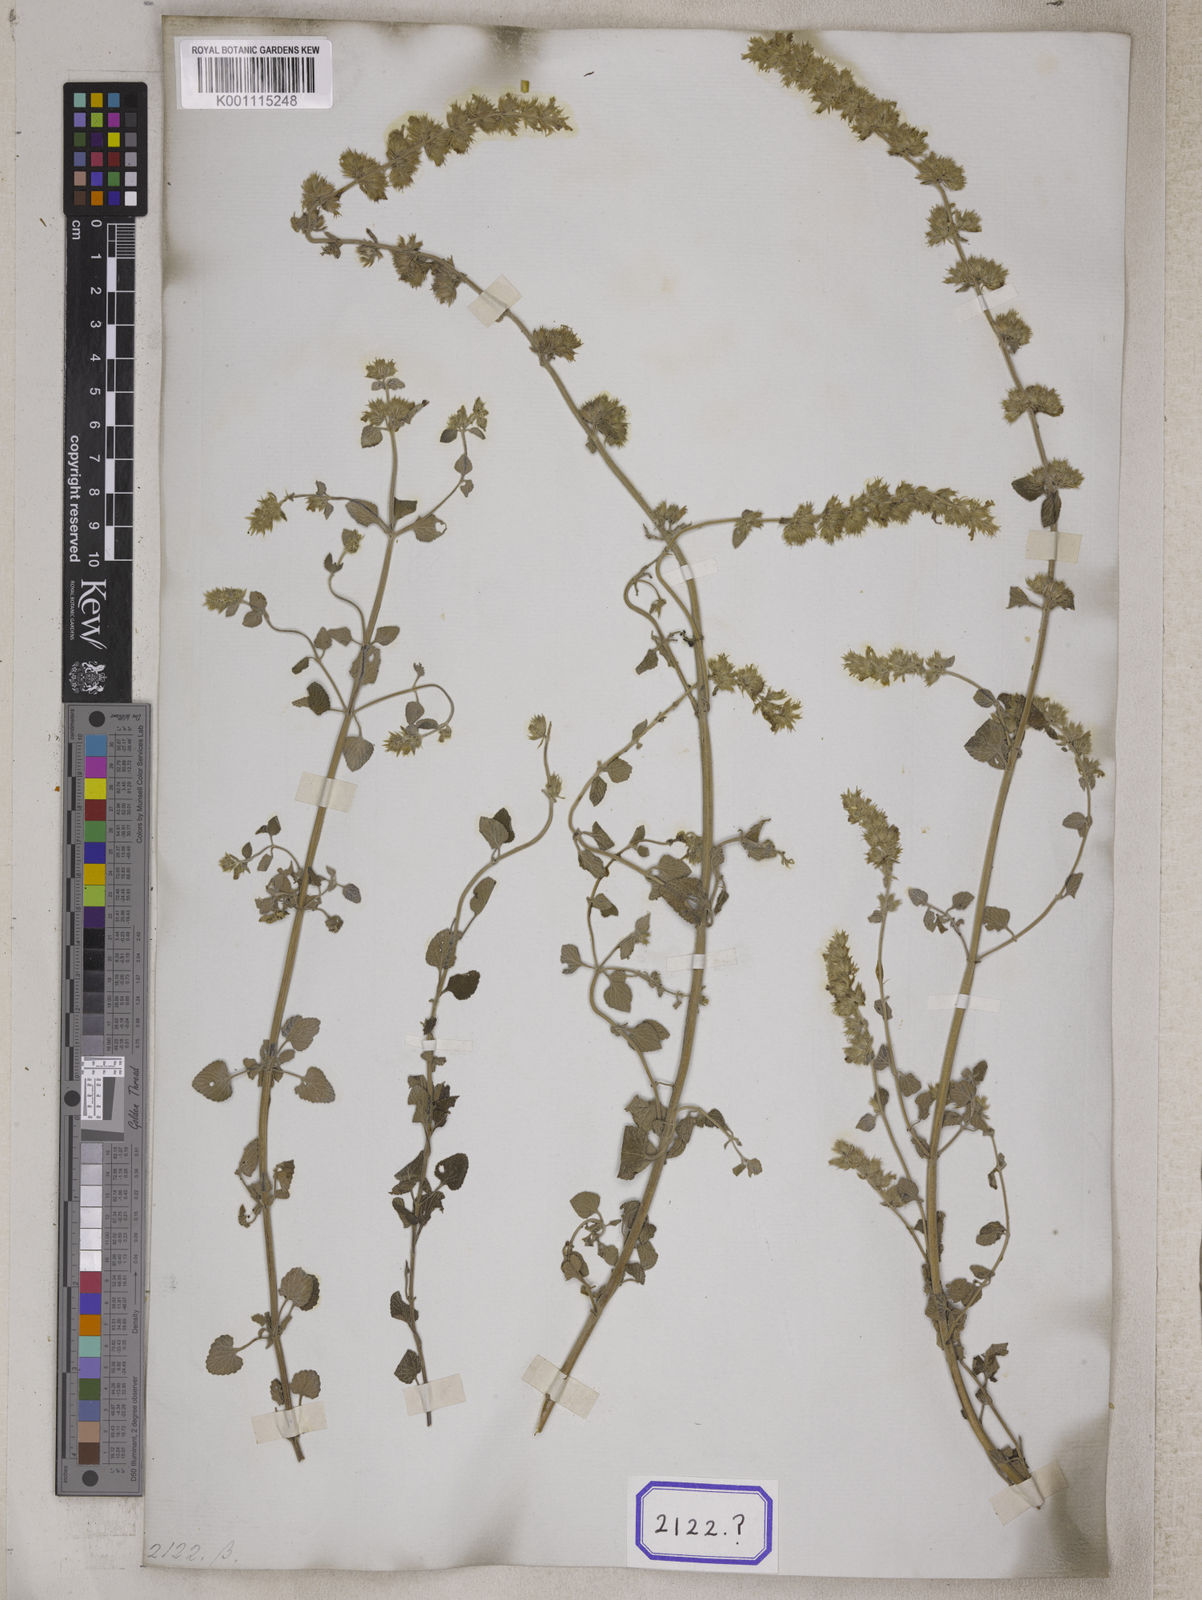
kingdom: Plantae
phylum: Tracheophyta
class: Magnoliopsida
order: Lamiales
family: Lamiaceae
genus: Nepeta
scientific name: Nepeta
